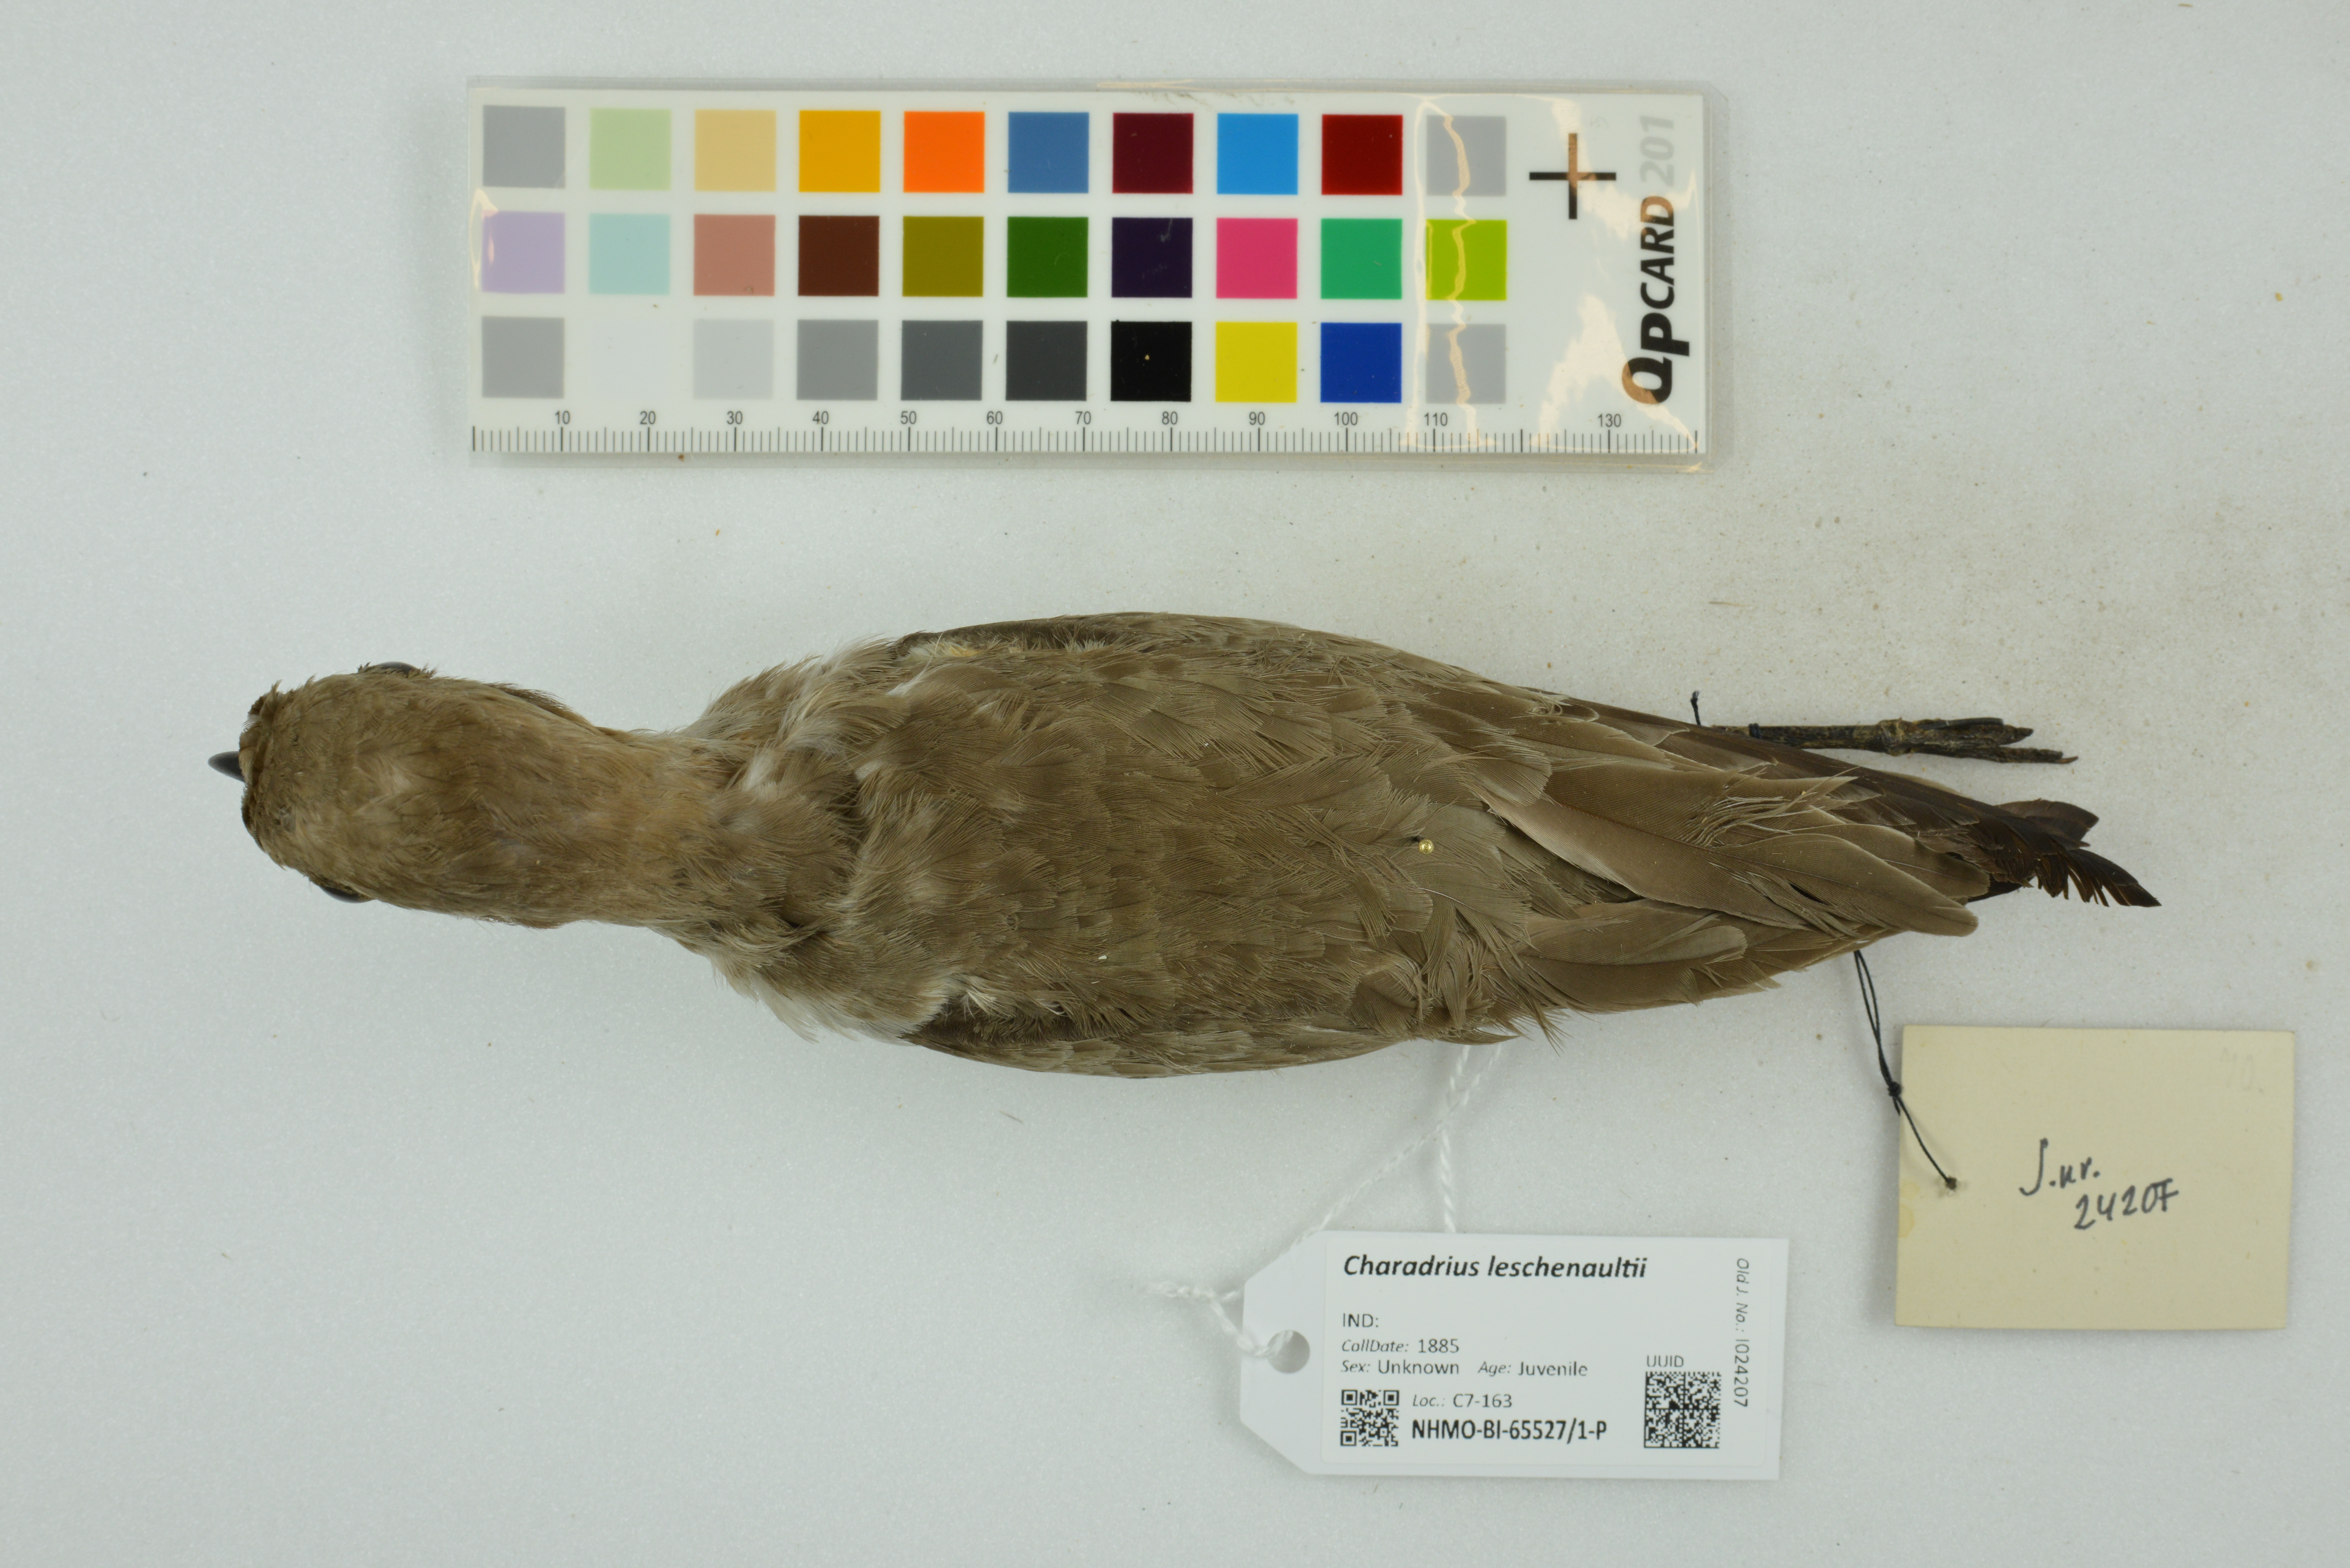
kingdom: Animalia
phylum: Chordata
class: Aves
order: Charadriiformes
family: Charadriidae
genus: Charadrius
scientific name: Charadrius leschenaultii
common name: Greater sand plover
